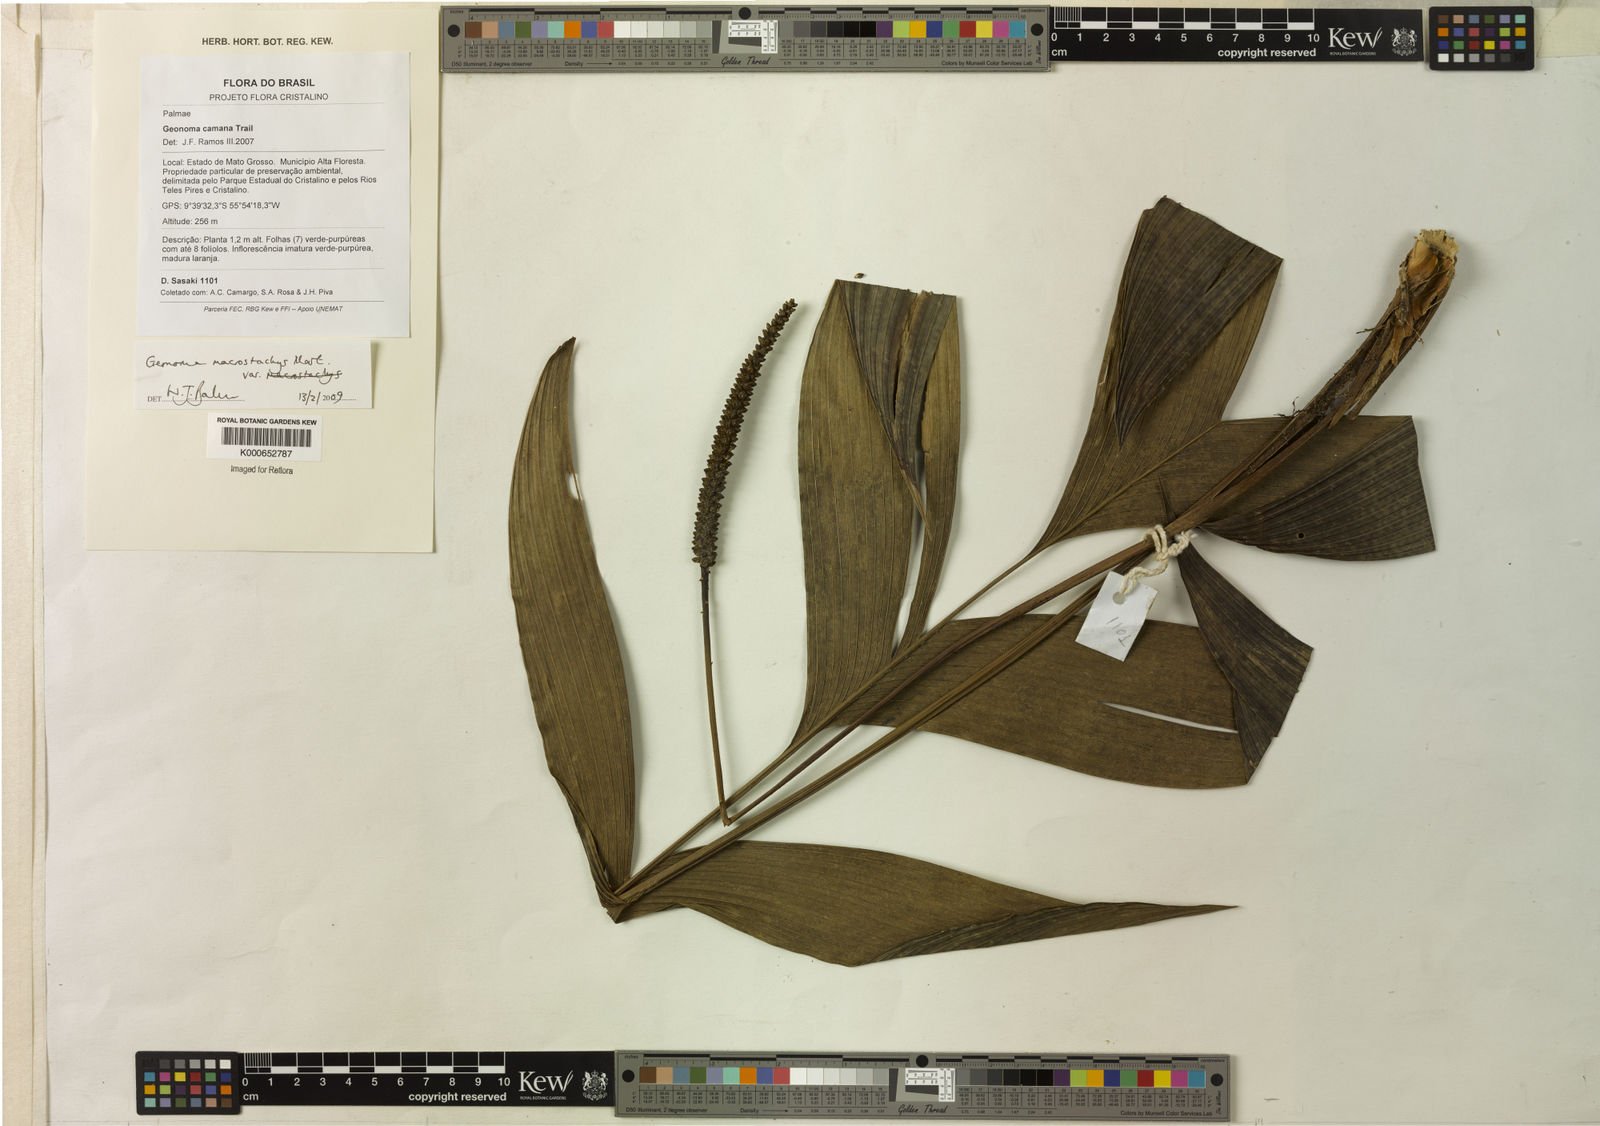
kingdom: Plantae
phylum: Tracheophyta
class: Liliopsida
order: Arecales
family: Arecaceae
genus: Geonoma
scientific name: Geonoma macrostachys
